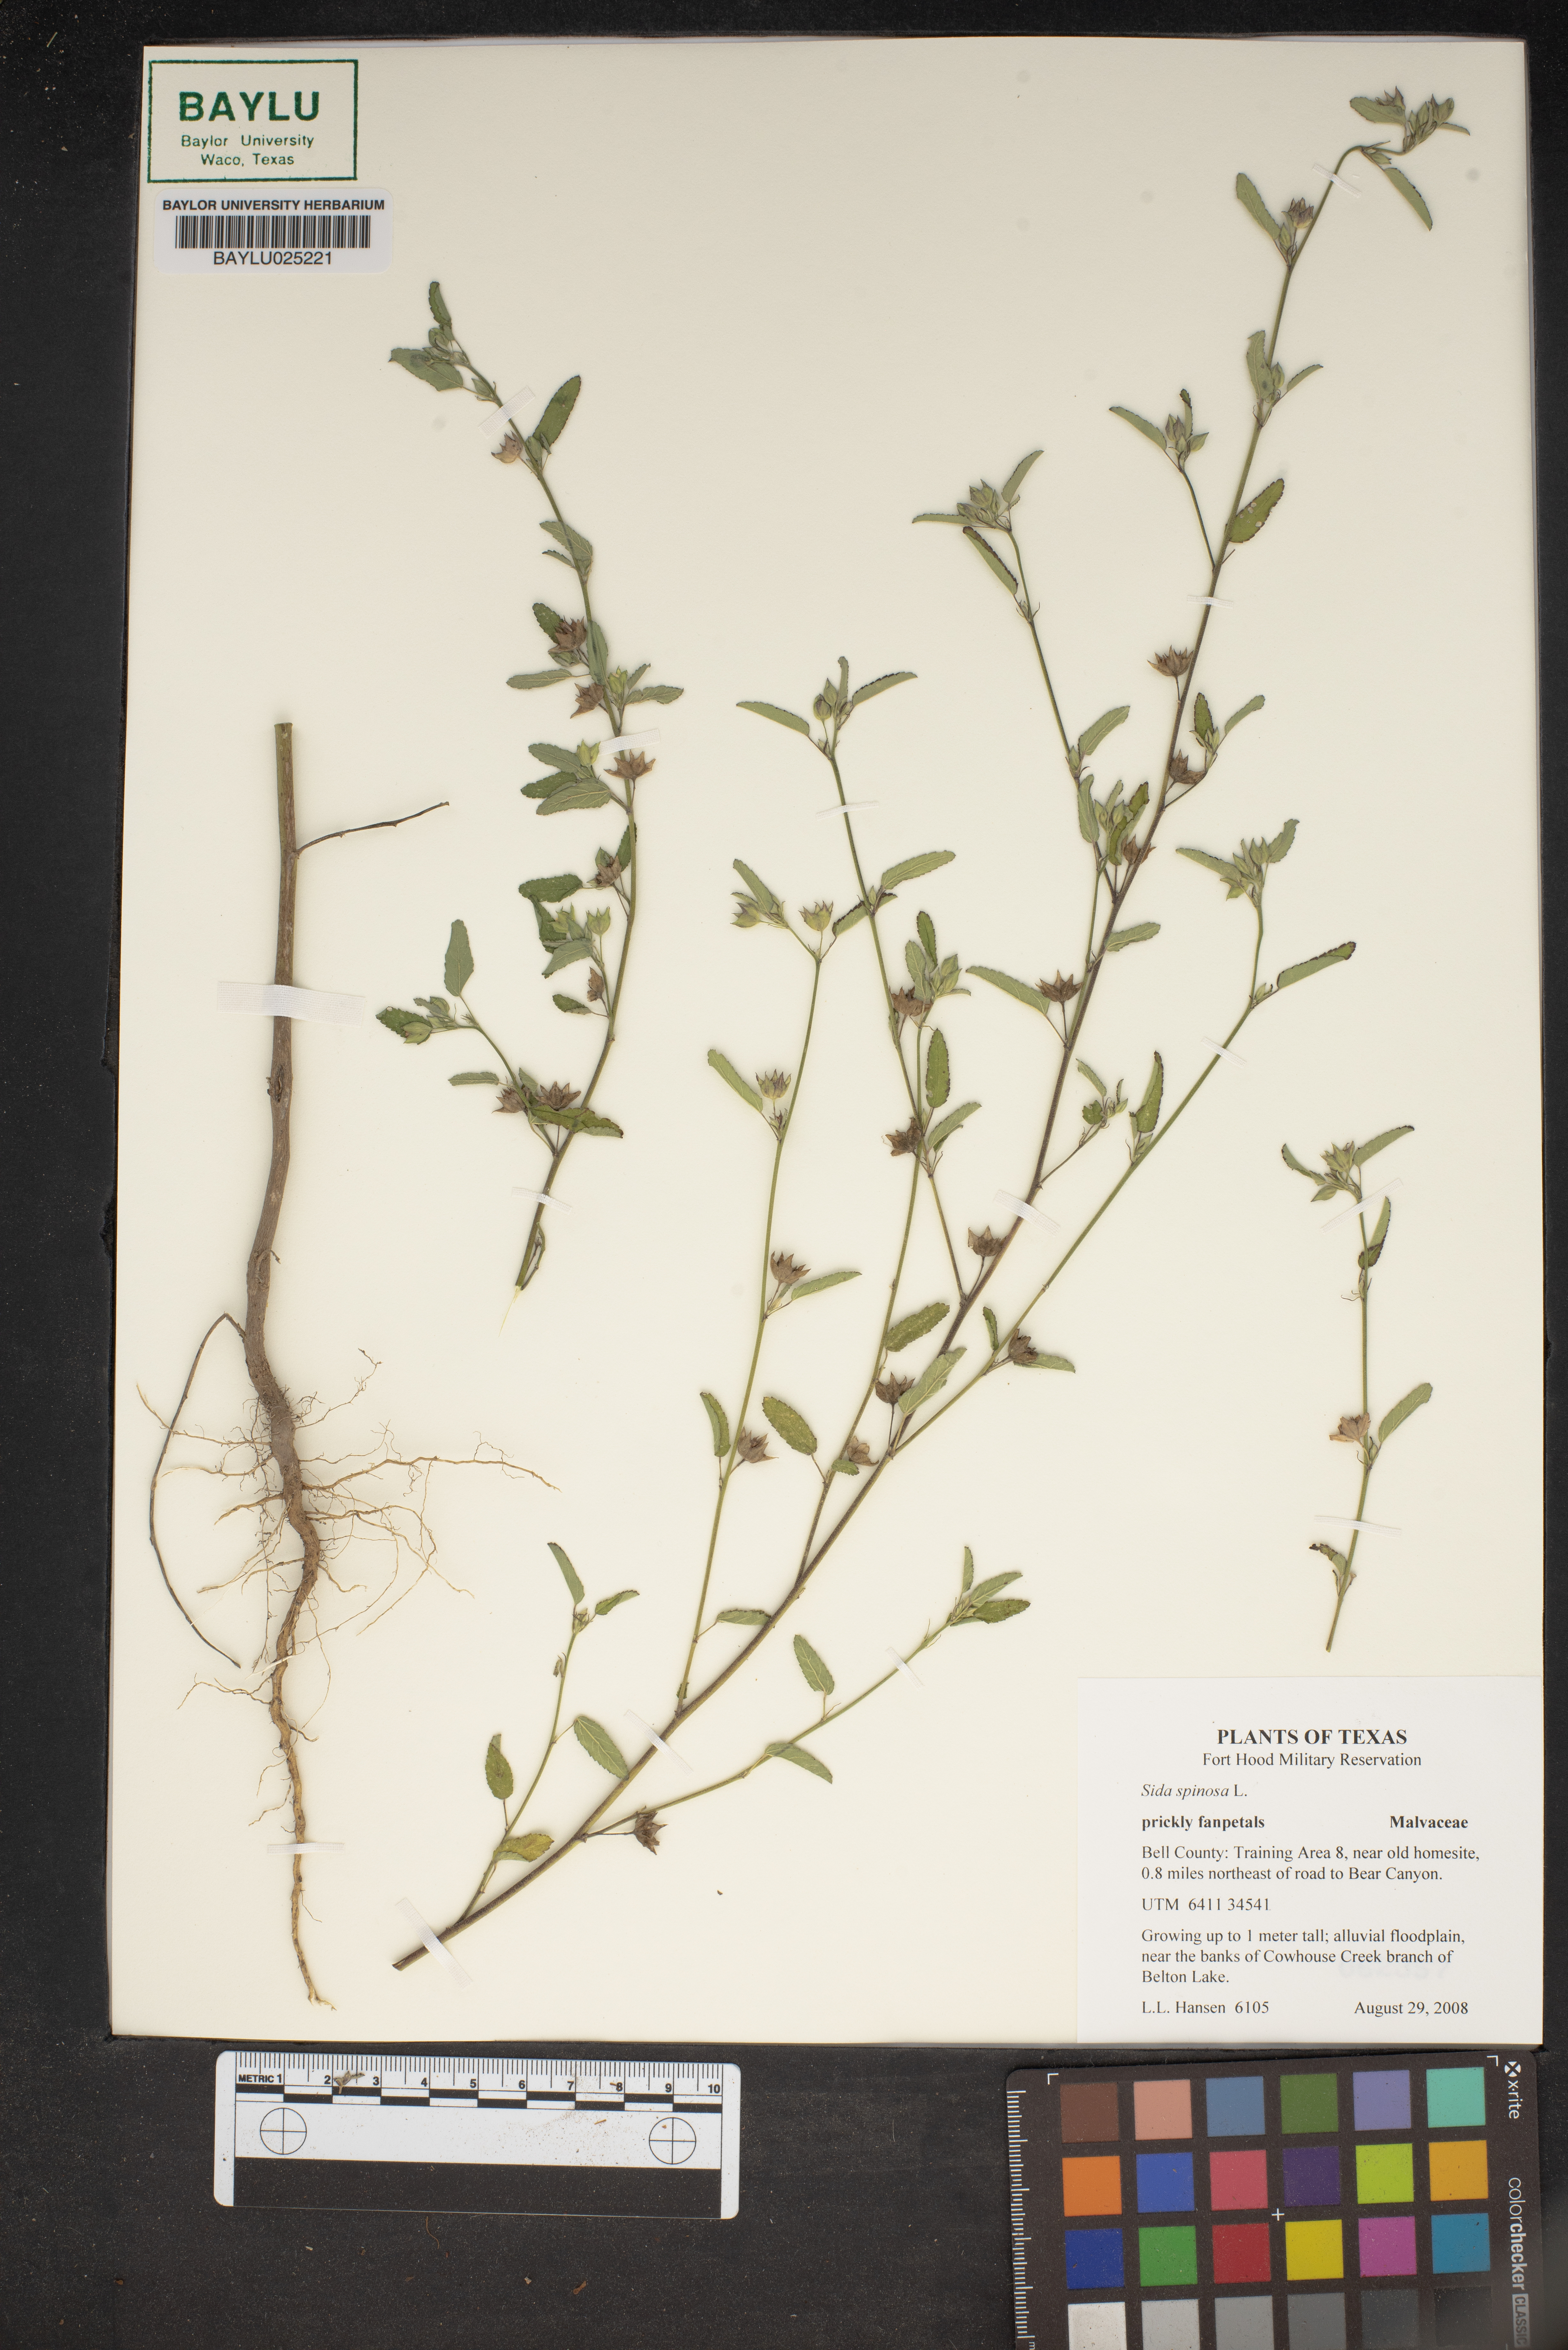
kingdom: Plantae
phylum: Tracheophyta
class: Magnoliopsida
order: Malvales
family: Malvaceae
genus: Sida
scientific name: Sida spinosa
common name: Prickly fanpetals
